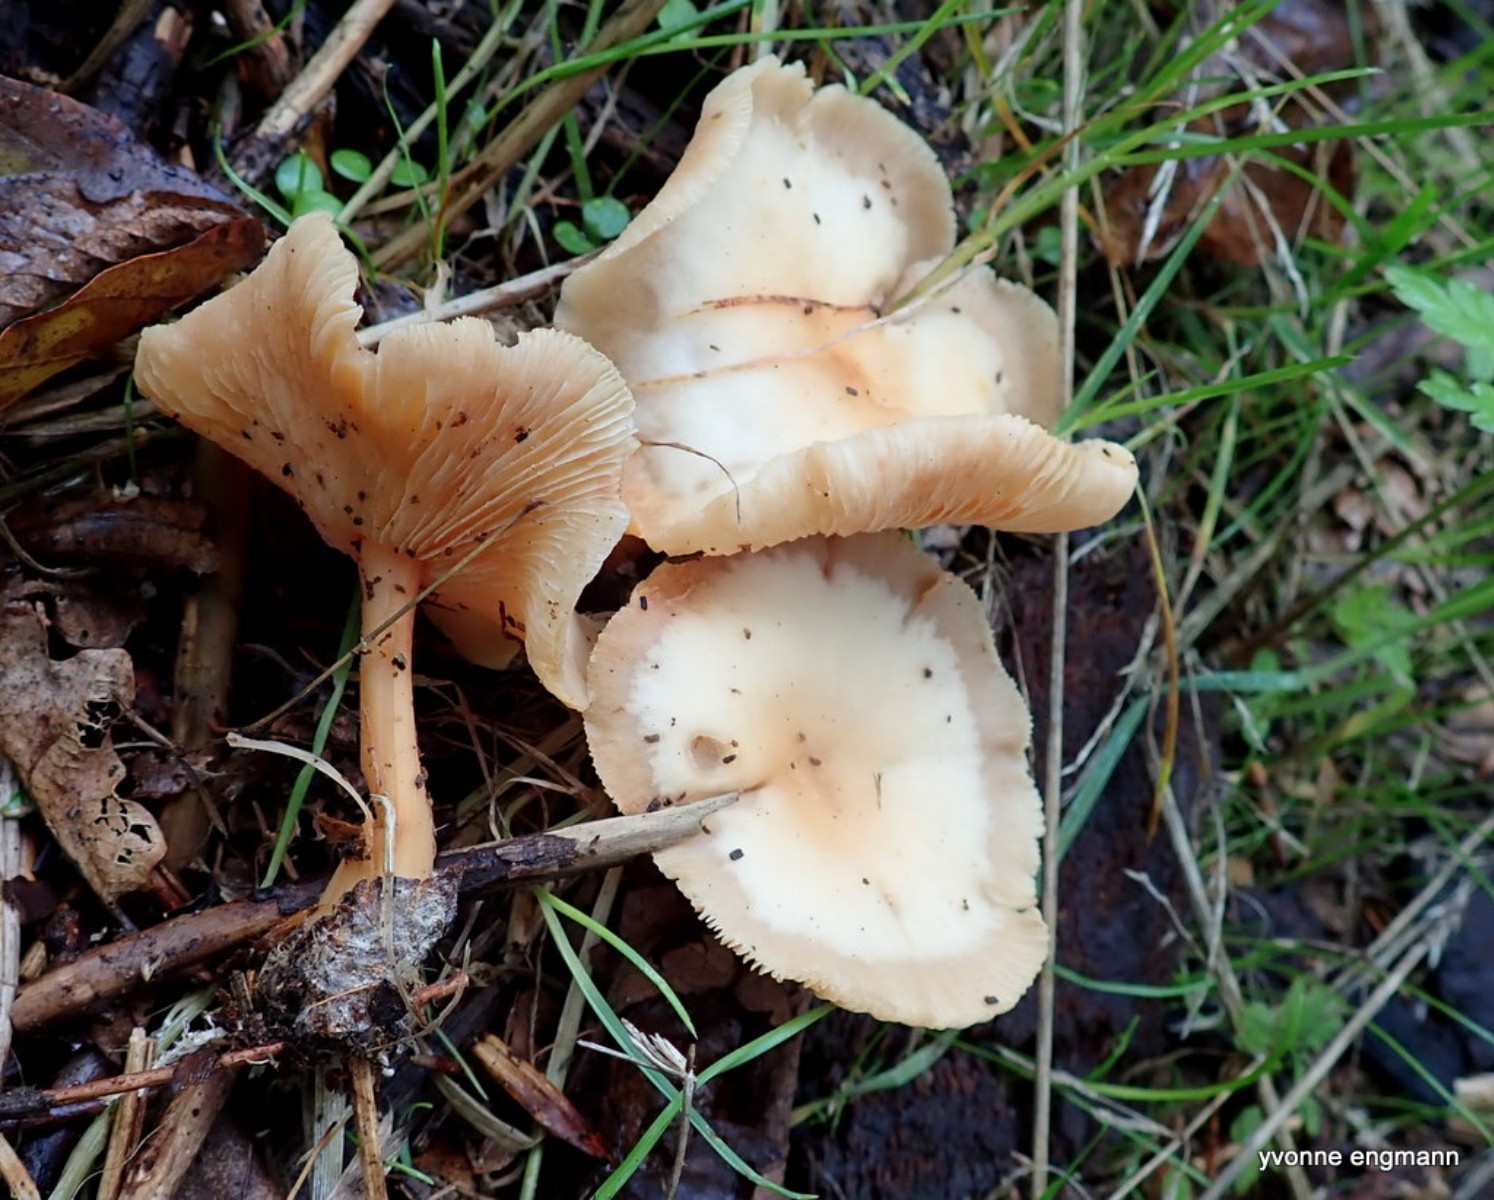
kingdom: Fungi
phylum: Basidiomycota
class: Agaricomycetes
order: Agaricales
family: Omphalotaceae
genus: Gymnopus
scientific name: Gymnopus dryophilus
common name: løv-fladhat
